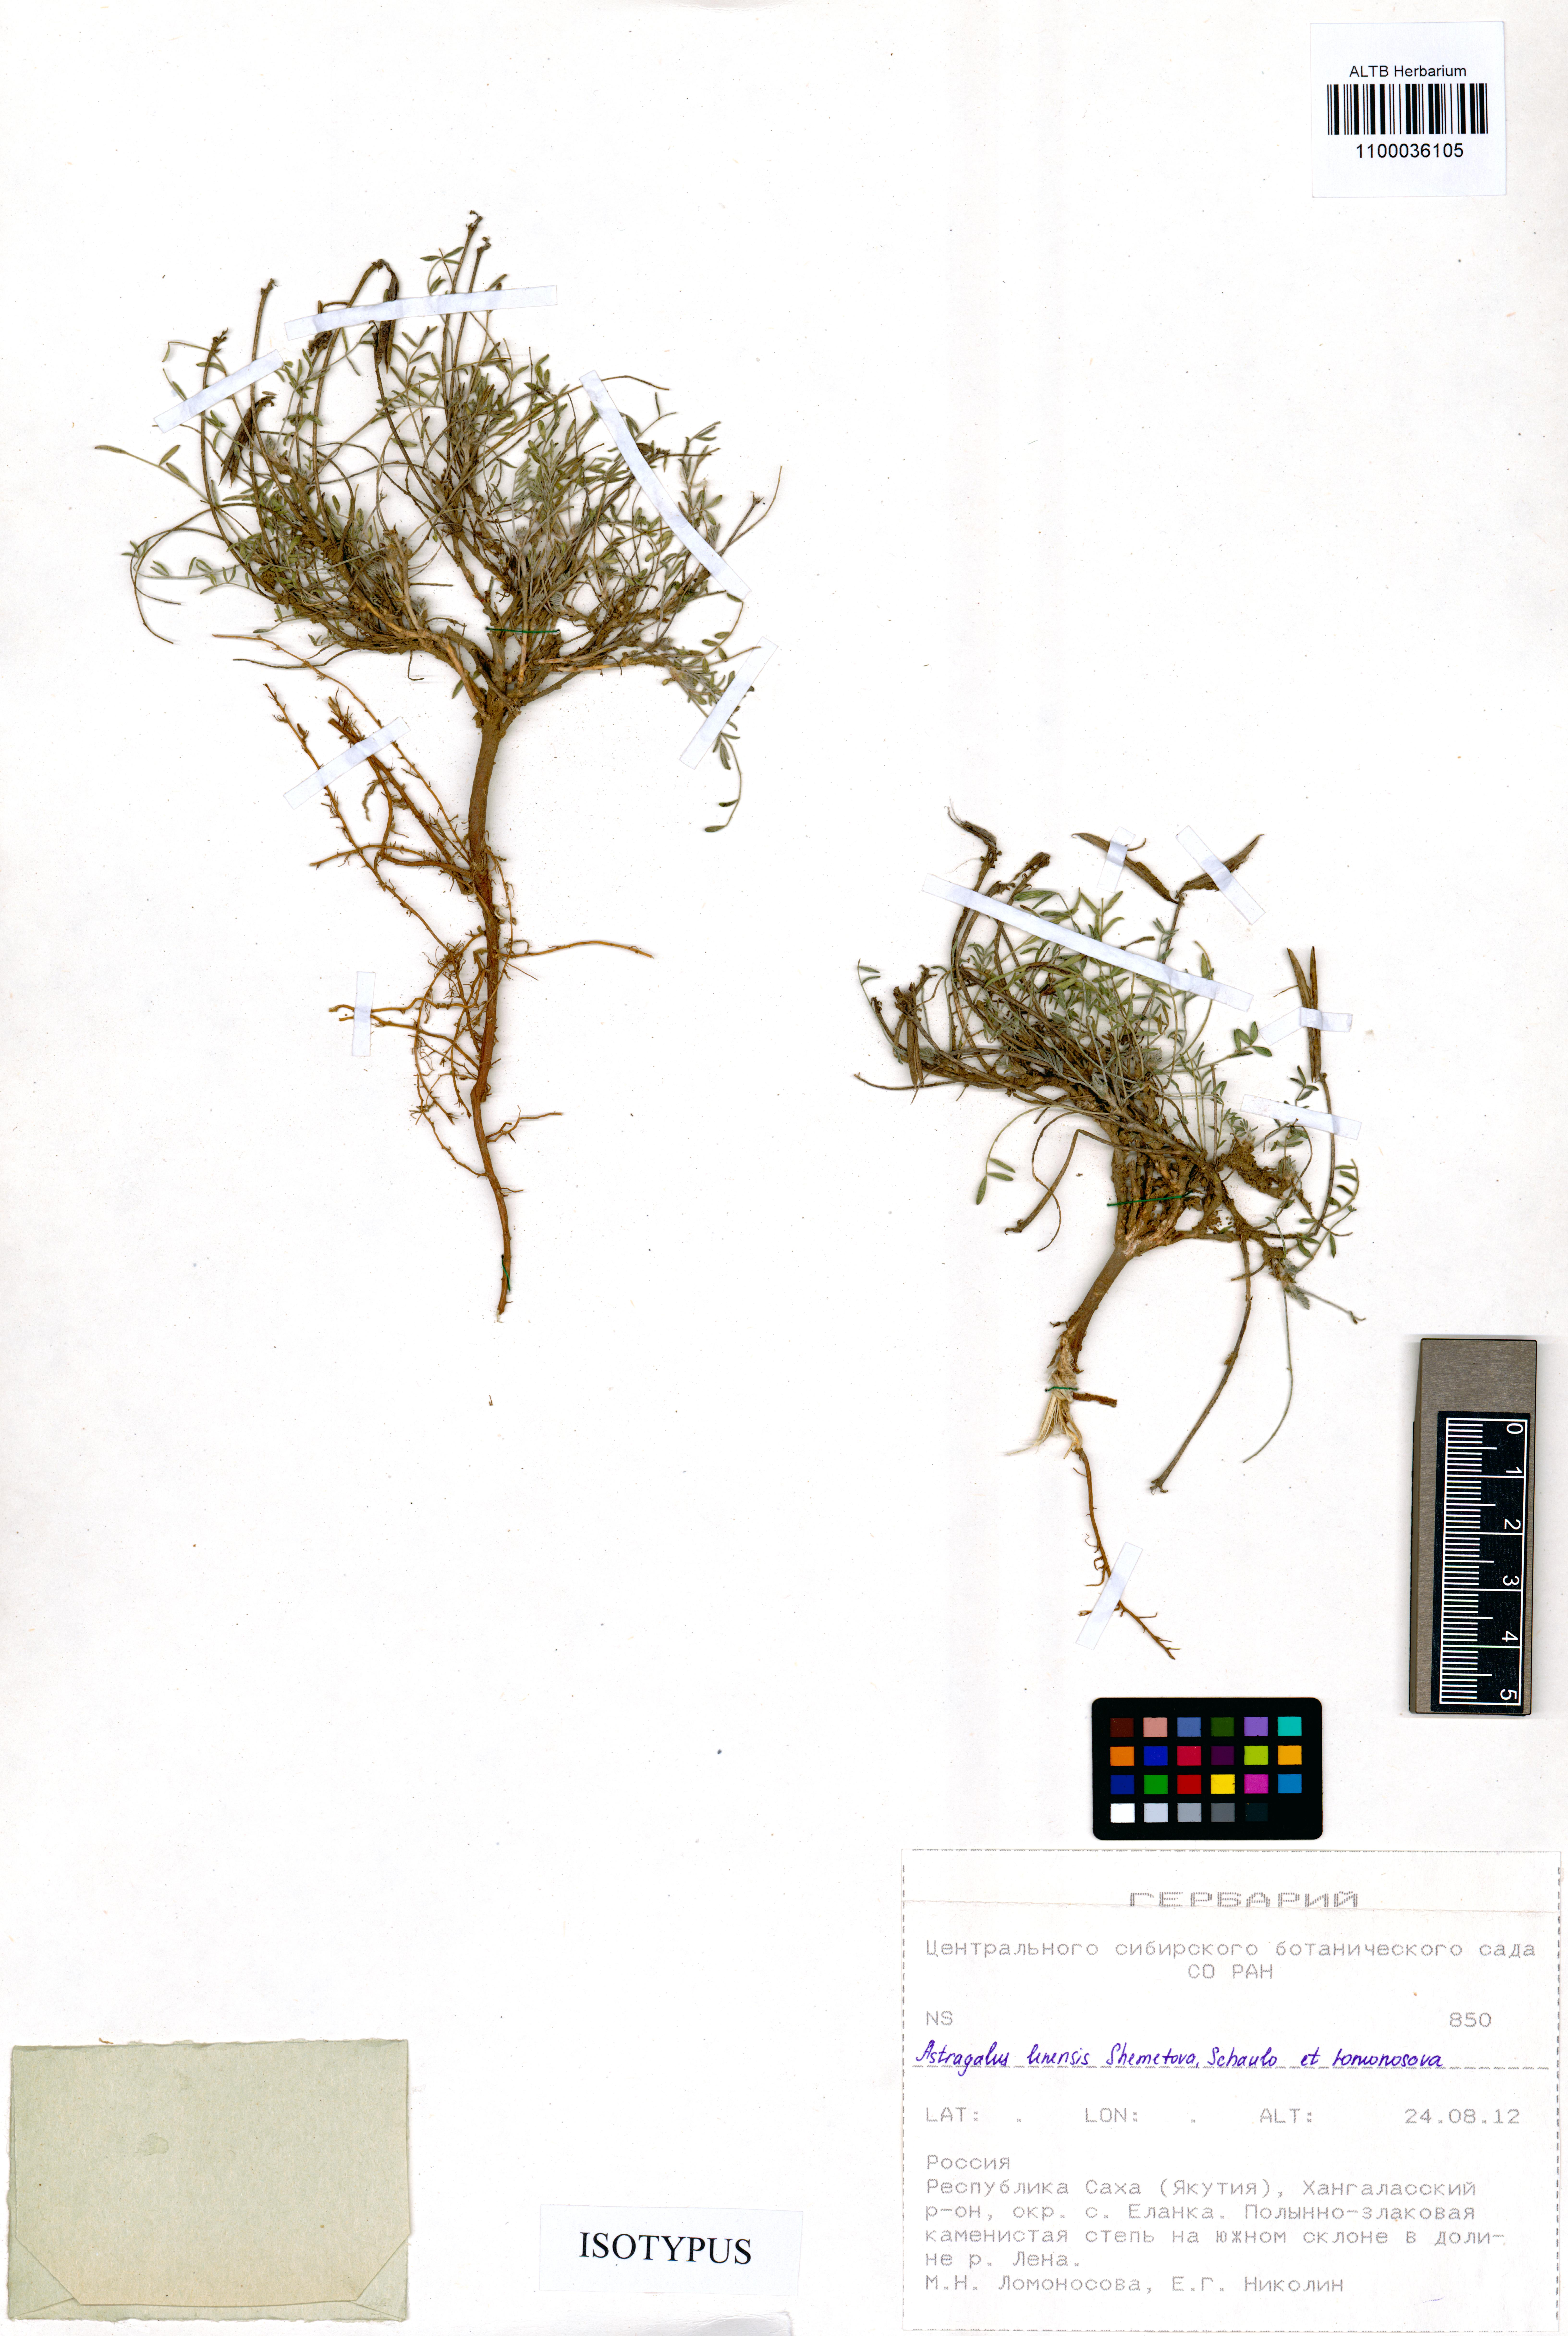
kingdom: Plantae
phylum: Tracheophyta
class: Magnoliopsida
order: Fabales
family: Fabaceae
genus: Astragalus
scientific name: Astragalus lenensis
